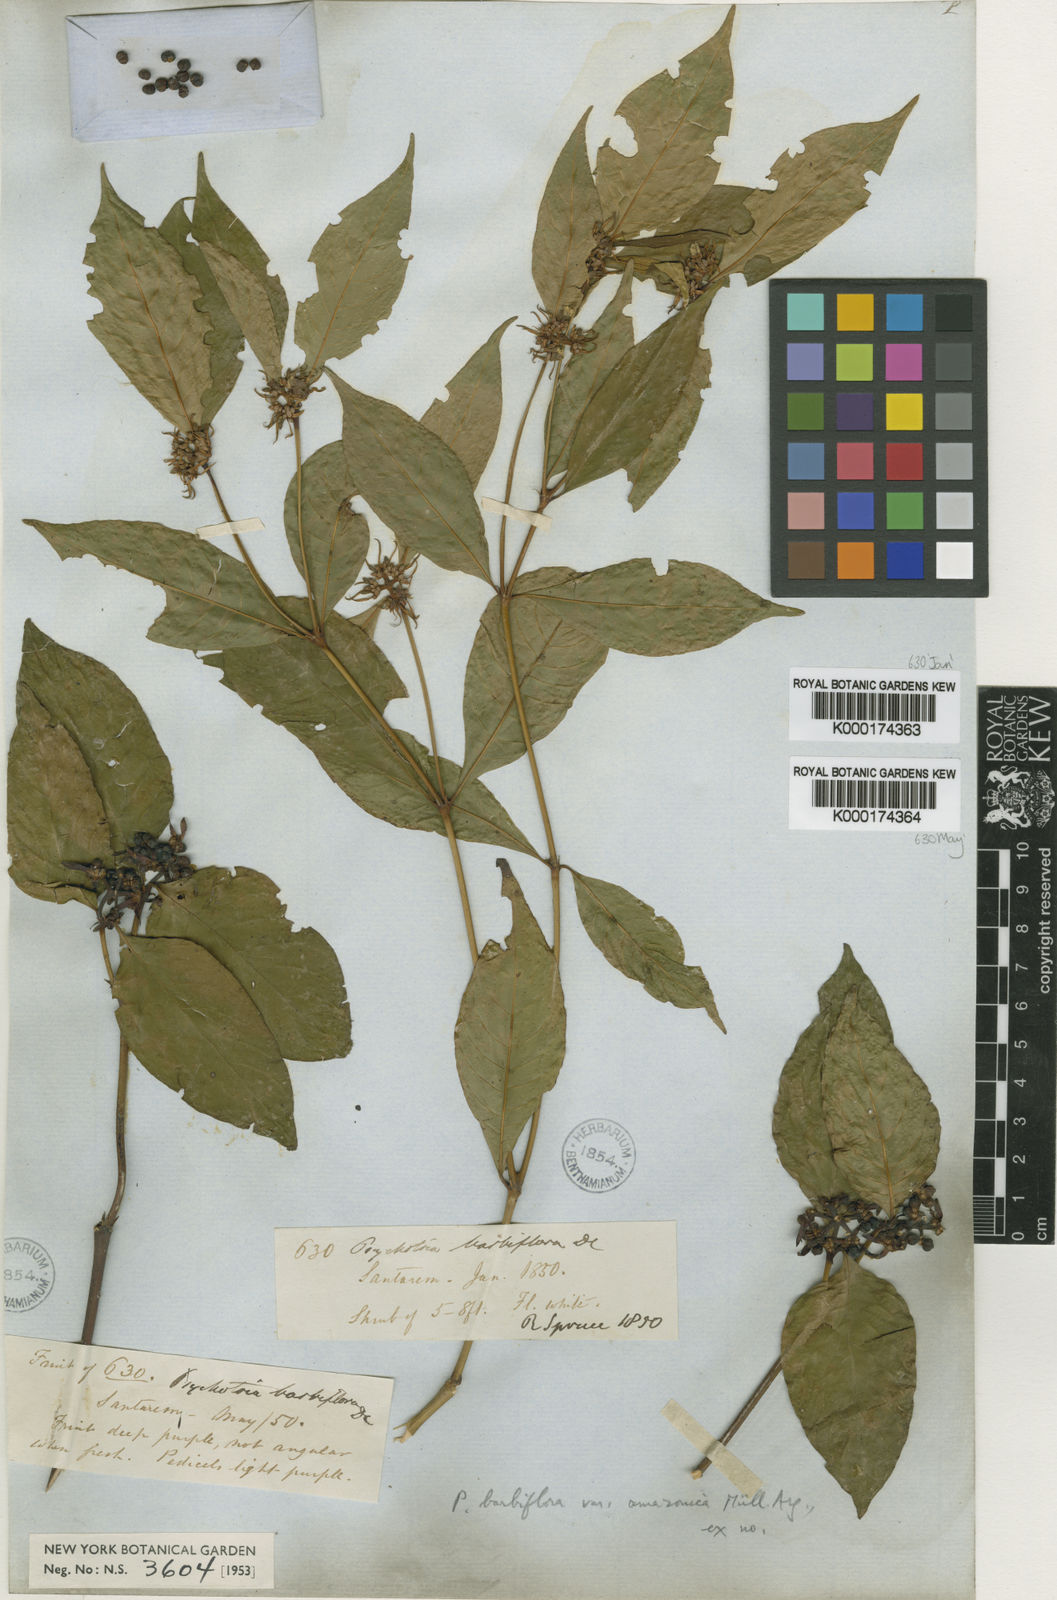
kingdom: Plantae
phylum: Tracheophyta
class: Magnoliopsida
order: Gentianales
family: Rubiaceae
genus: Psychotria
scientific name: Psychotria
